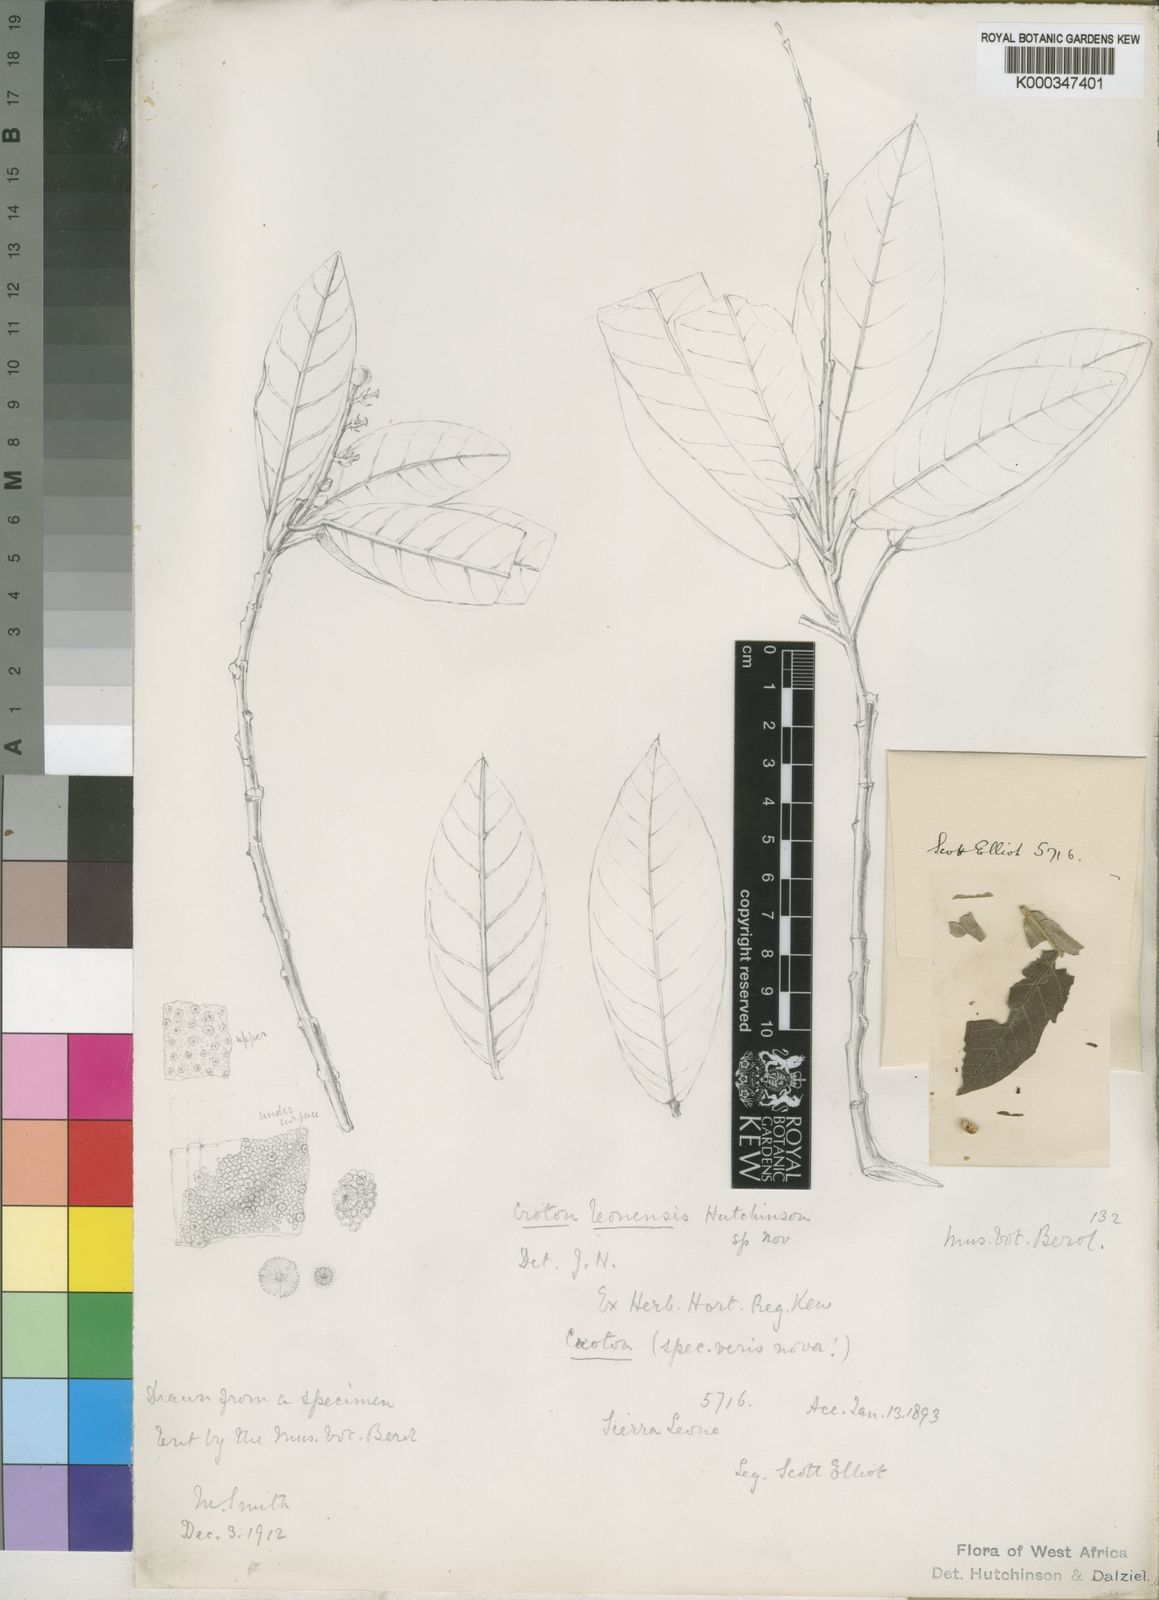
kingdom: Plantae
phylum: Tracheophyta
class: Magnoliopsida
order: Malpighiales
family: Euphorbiaceae
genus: Croton
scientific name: Croton leonensis
